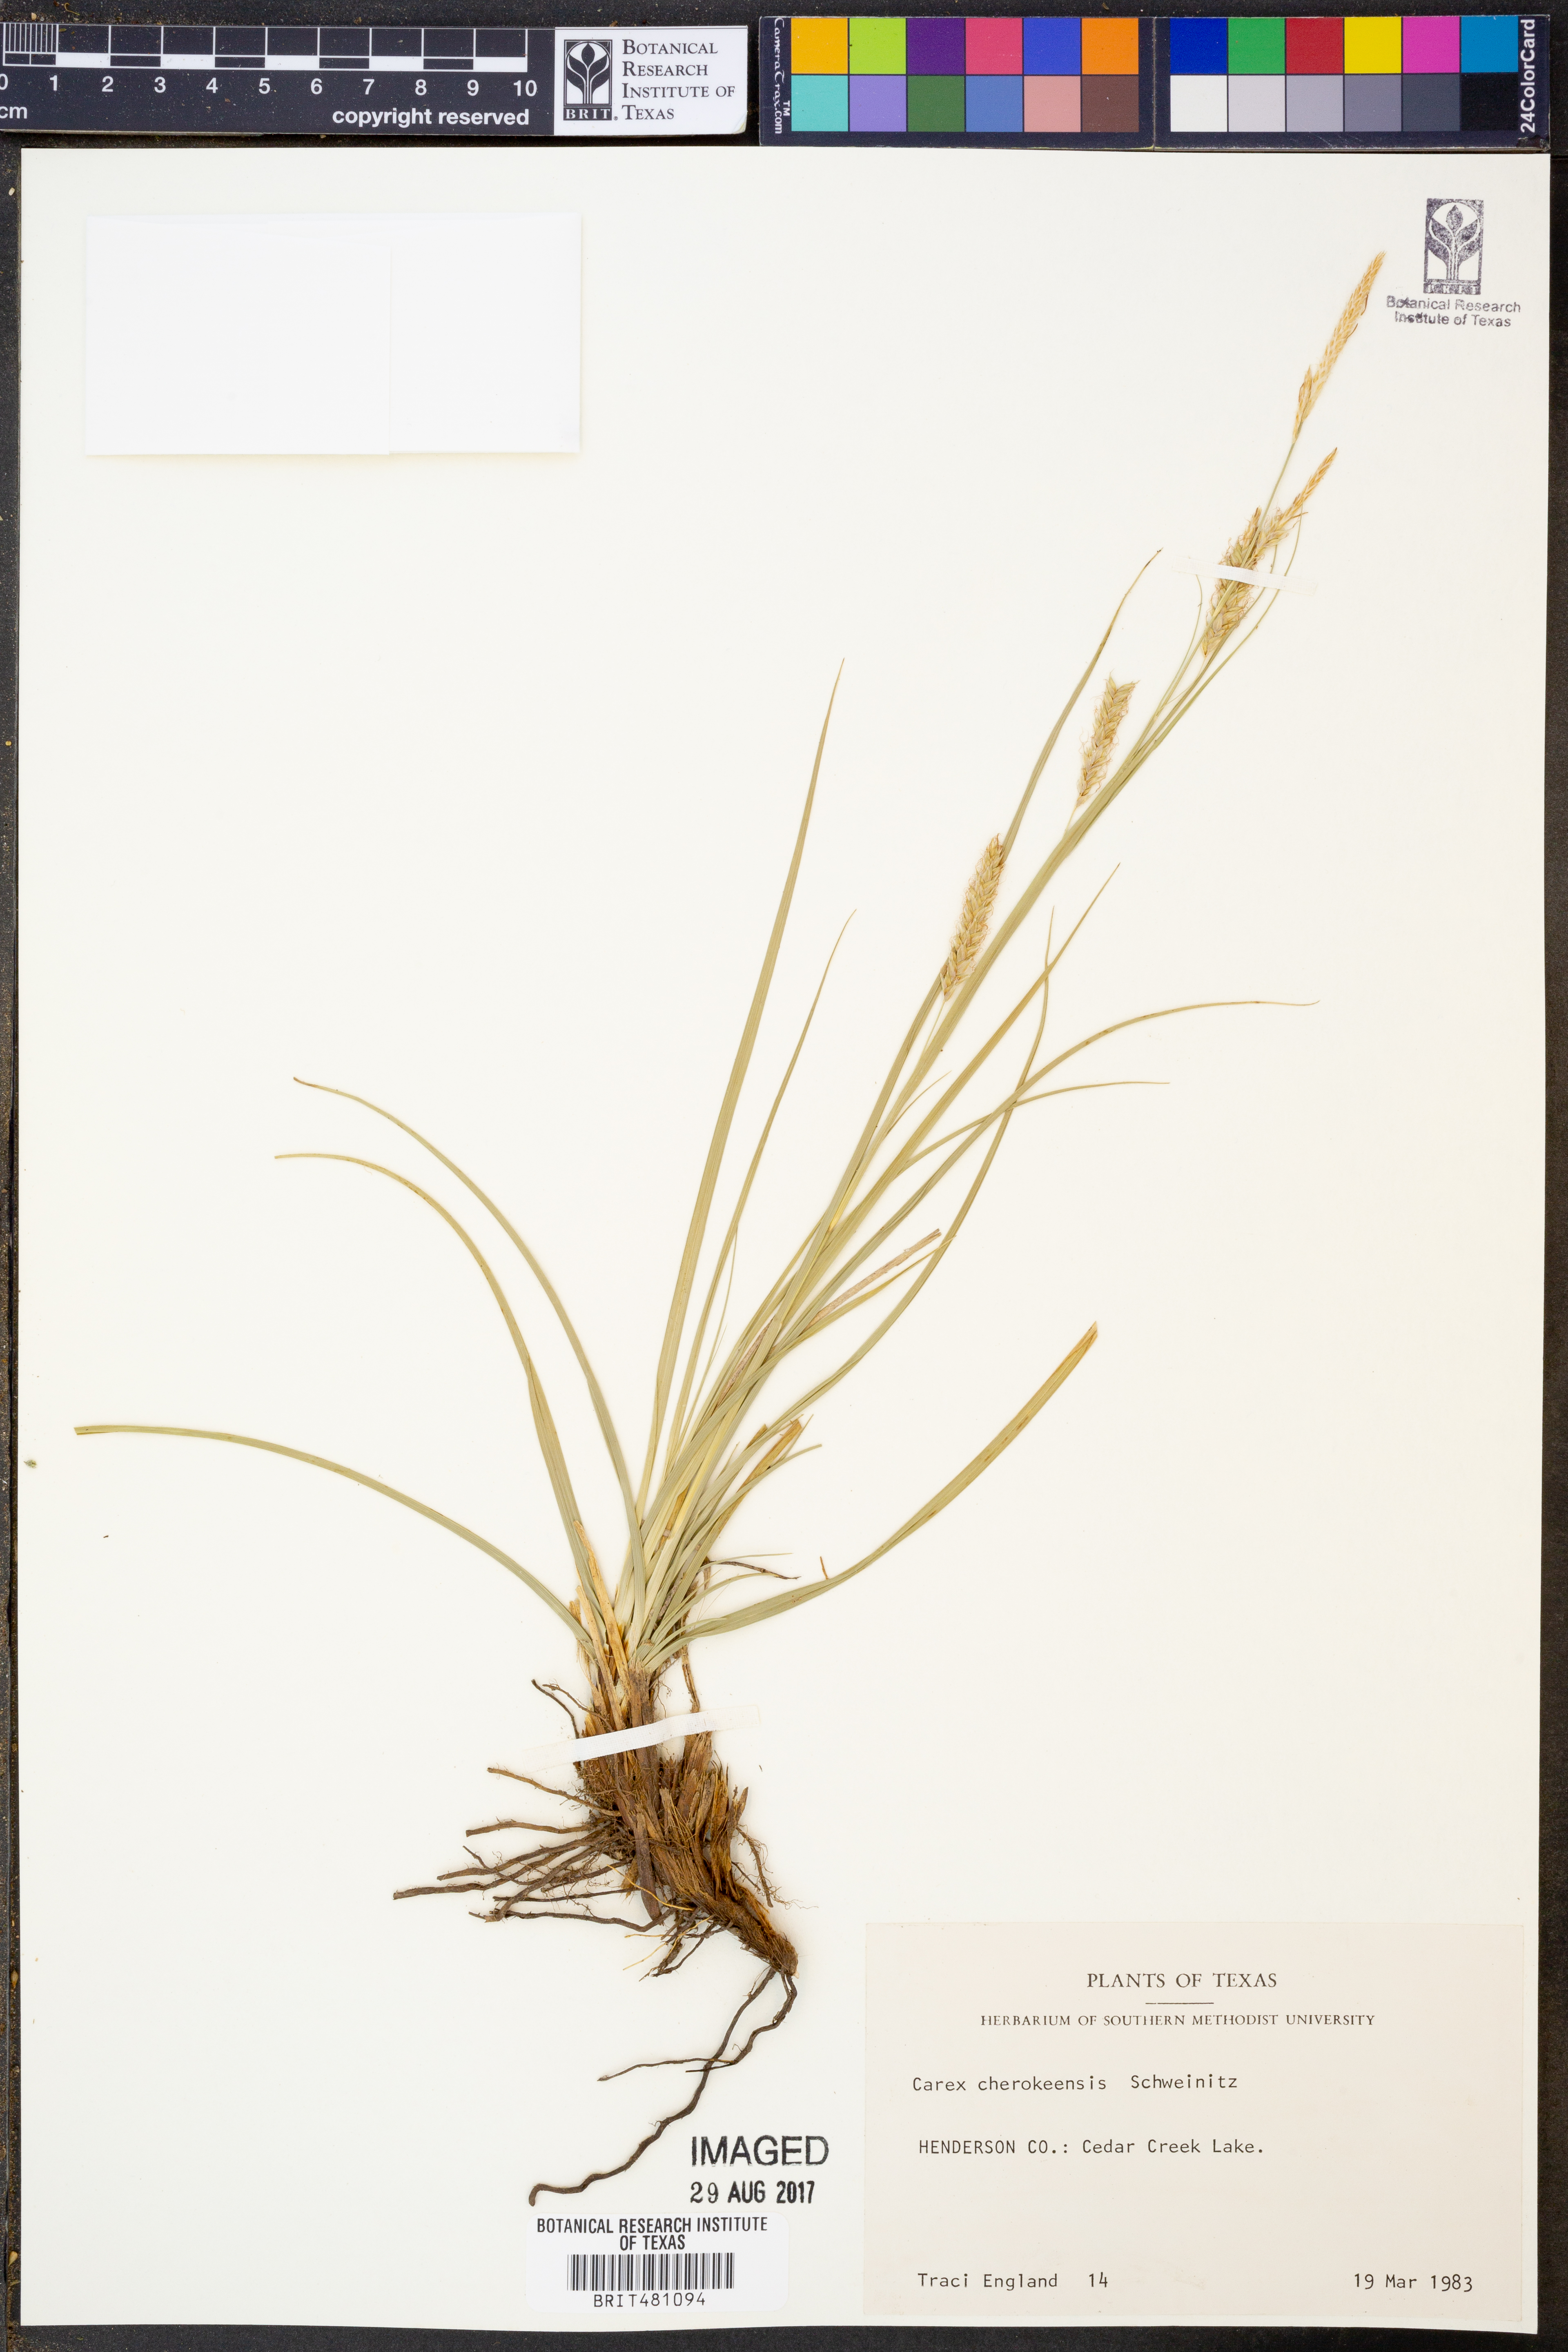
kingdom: Plantae
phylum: Tracheophyta
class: Liliopsida
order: Poales
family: Cyperaceae
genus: Carex
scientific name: Carex cherokeensis
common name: Cherokee sedge
